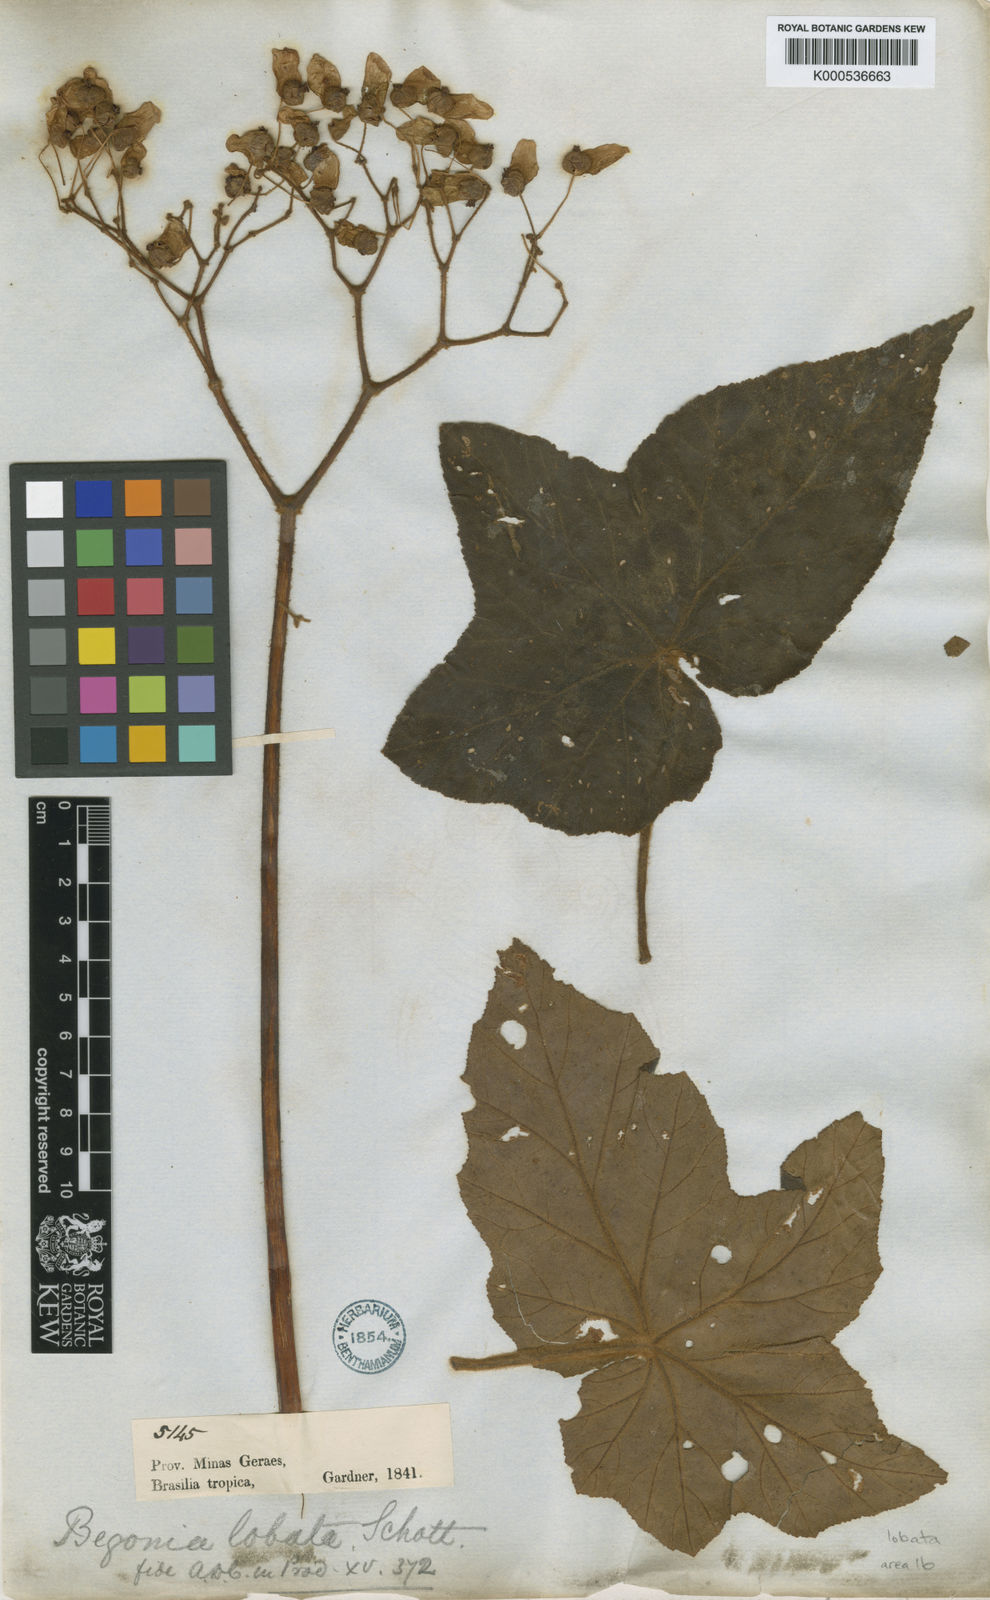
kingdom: Plantae
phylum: Tracheophyta
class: Magnoliopsida
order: Cucurbitales
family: Begoniaceae
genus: Begonia
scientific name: Begonia rufa
